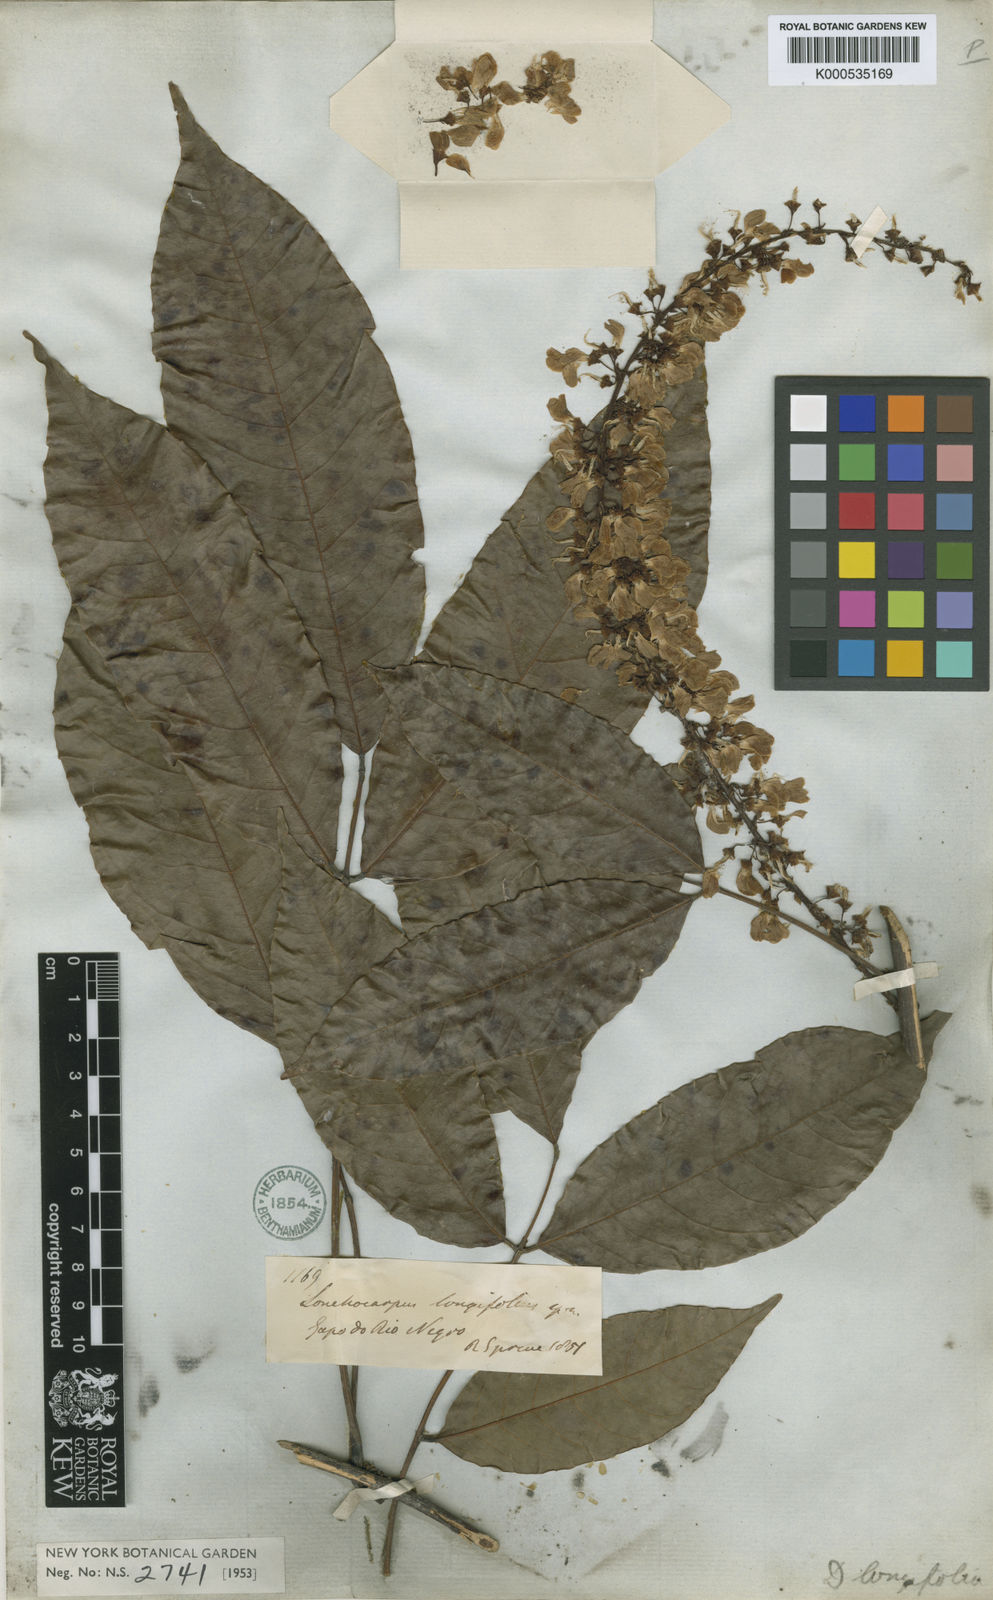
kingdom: Plantae
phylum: Tracheophyta
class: Magnoliopsida
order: Fabales
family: Fabaceae
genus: Deguelia
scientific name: Deguelia negrensis
